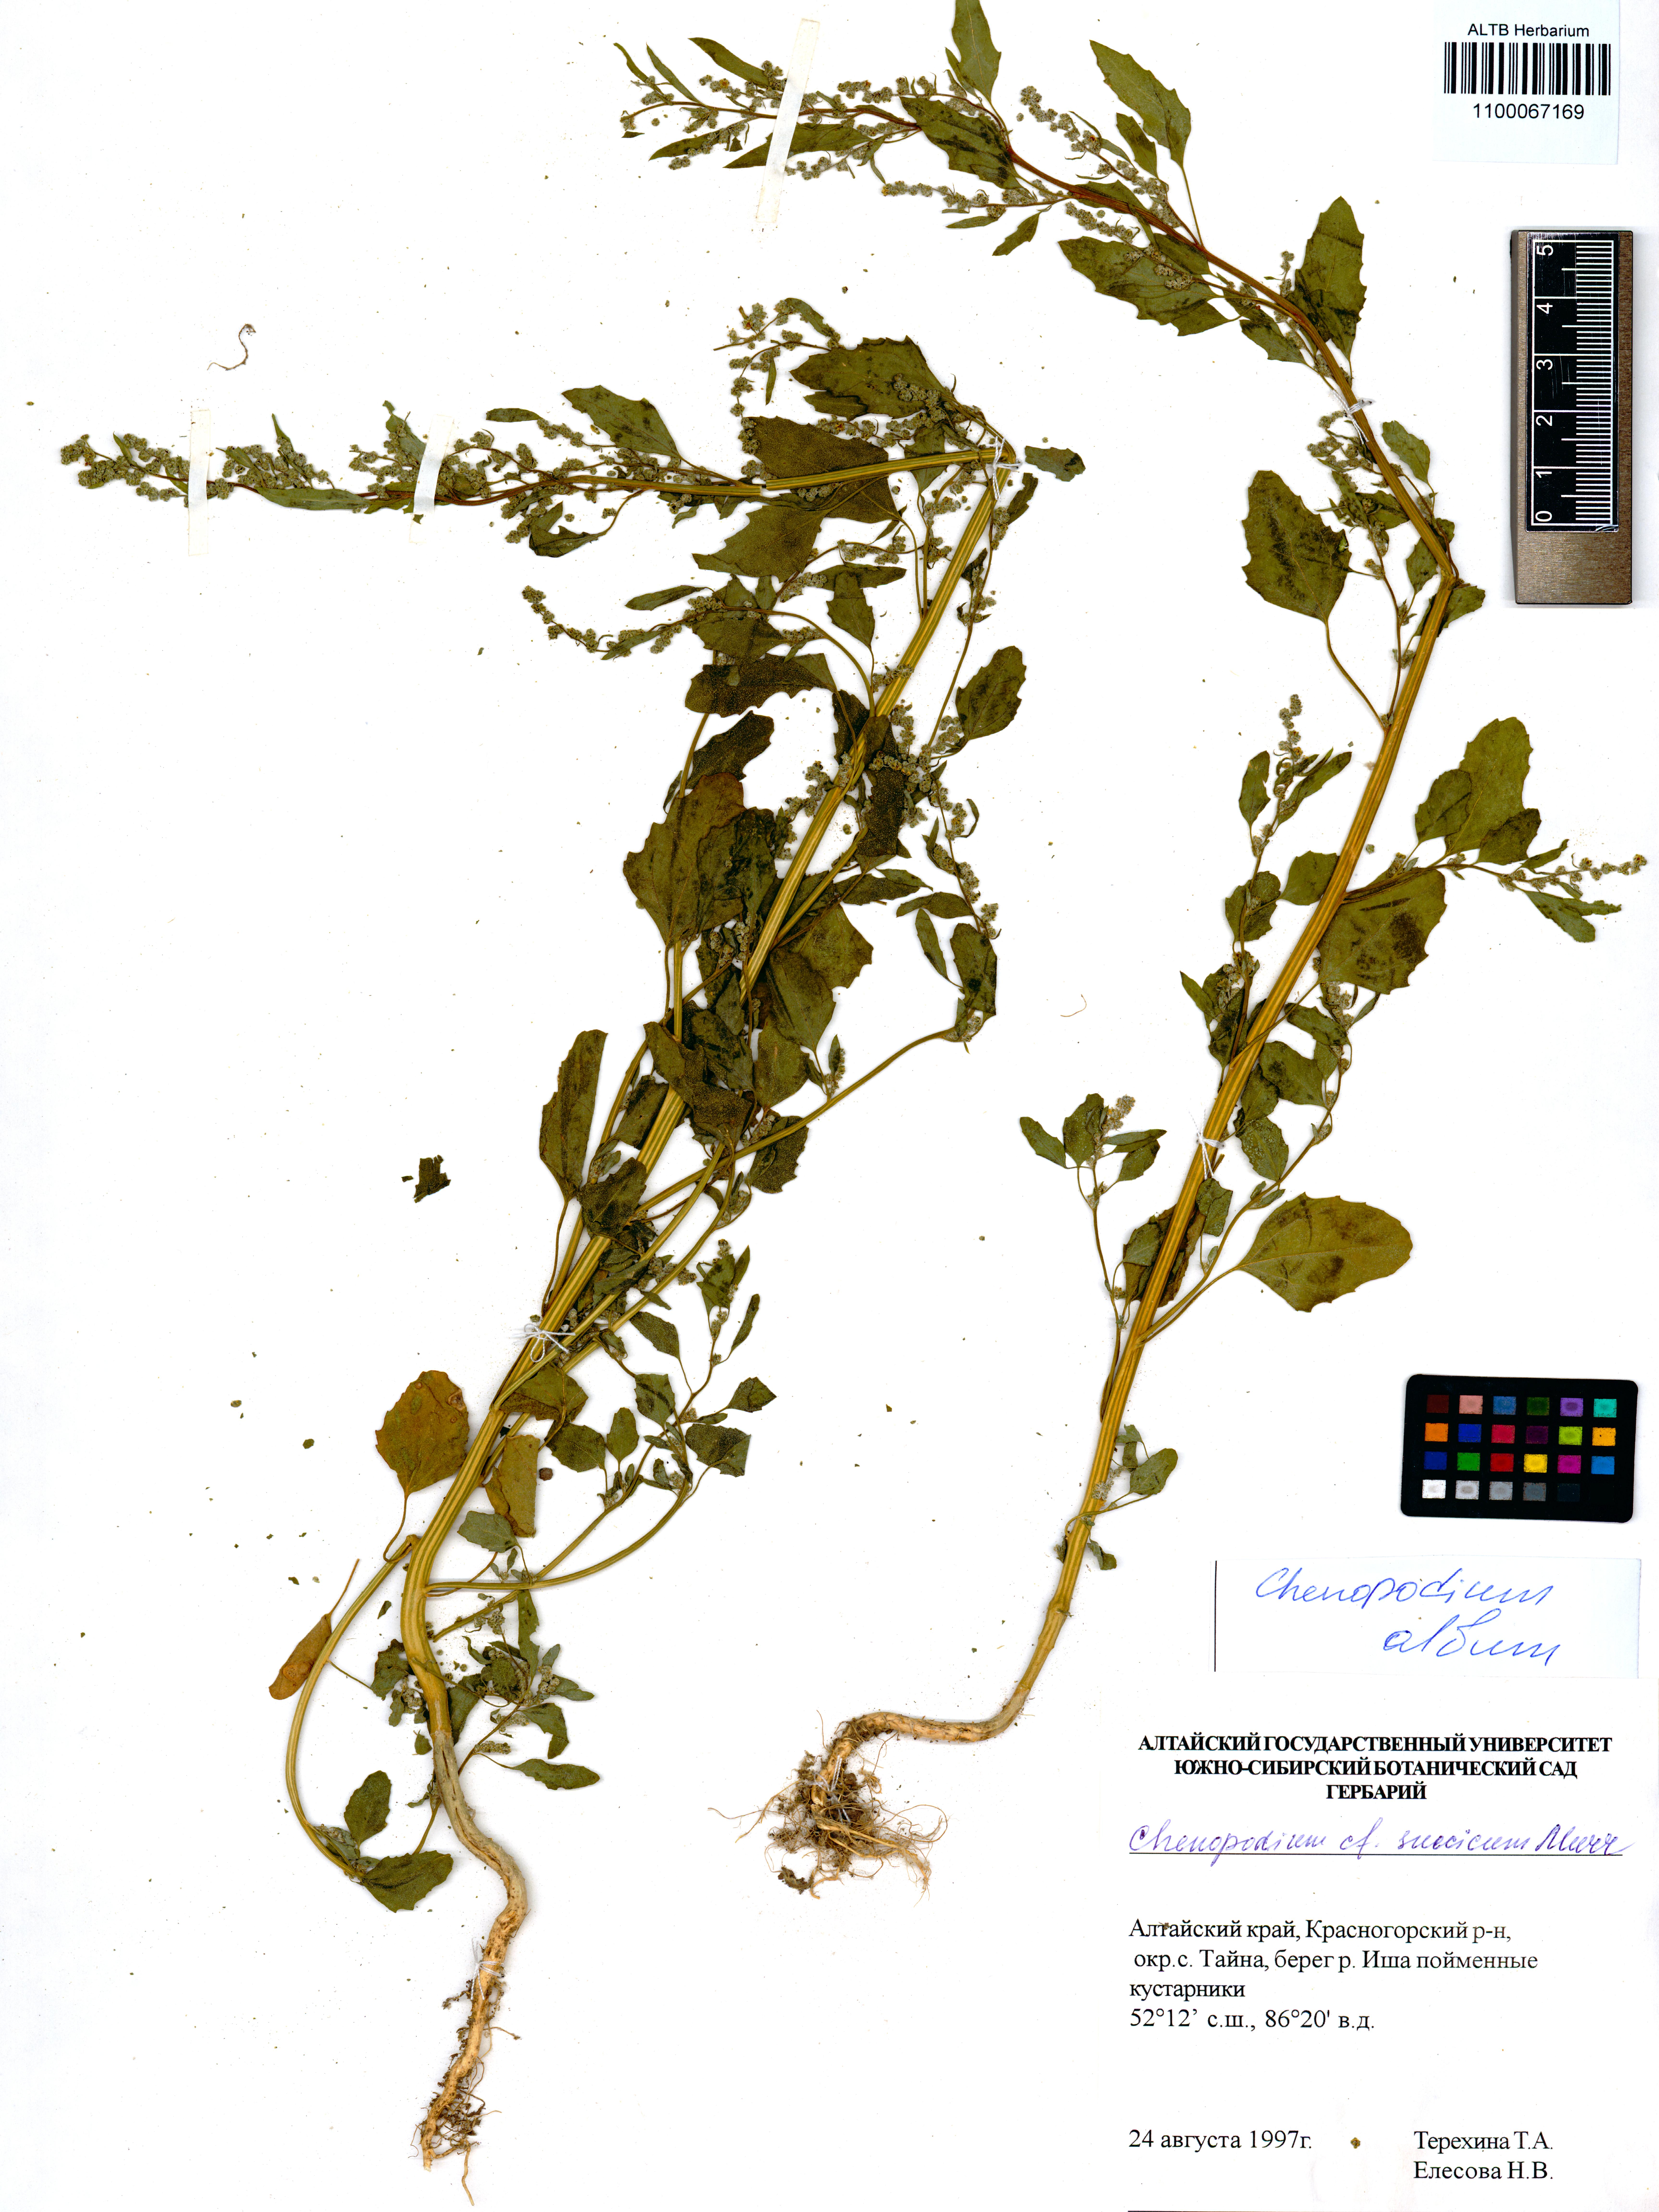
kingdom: Plantae
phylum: Tracheophyta
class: Magnoliopsida
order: Caryophyllales
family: Amaranthaceae
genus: Chenopodium
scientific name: Chenopodium album
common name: Fat-hen
